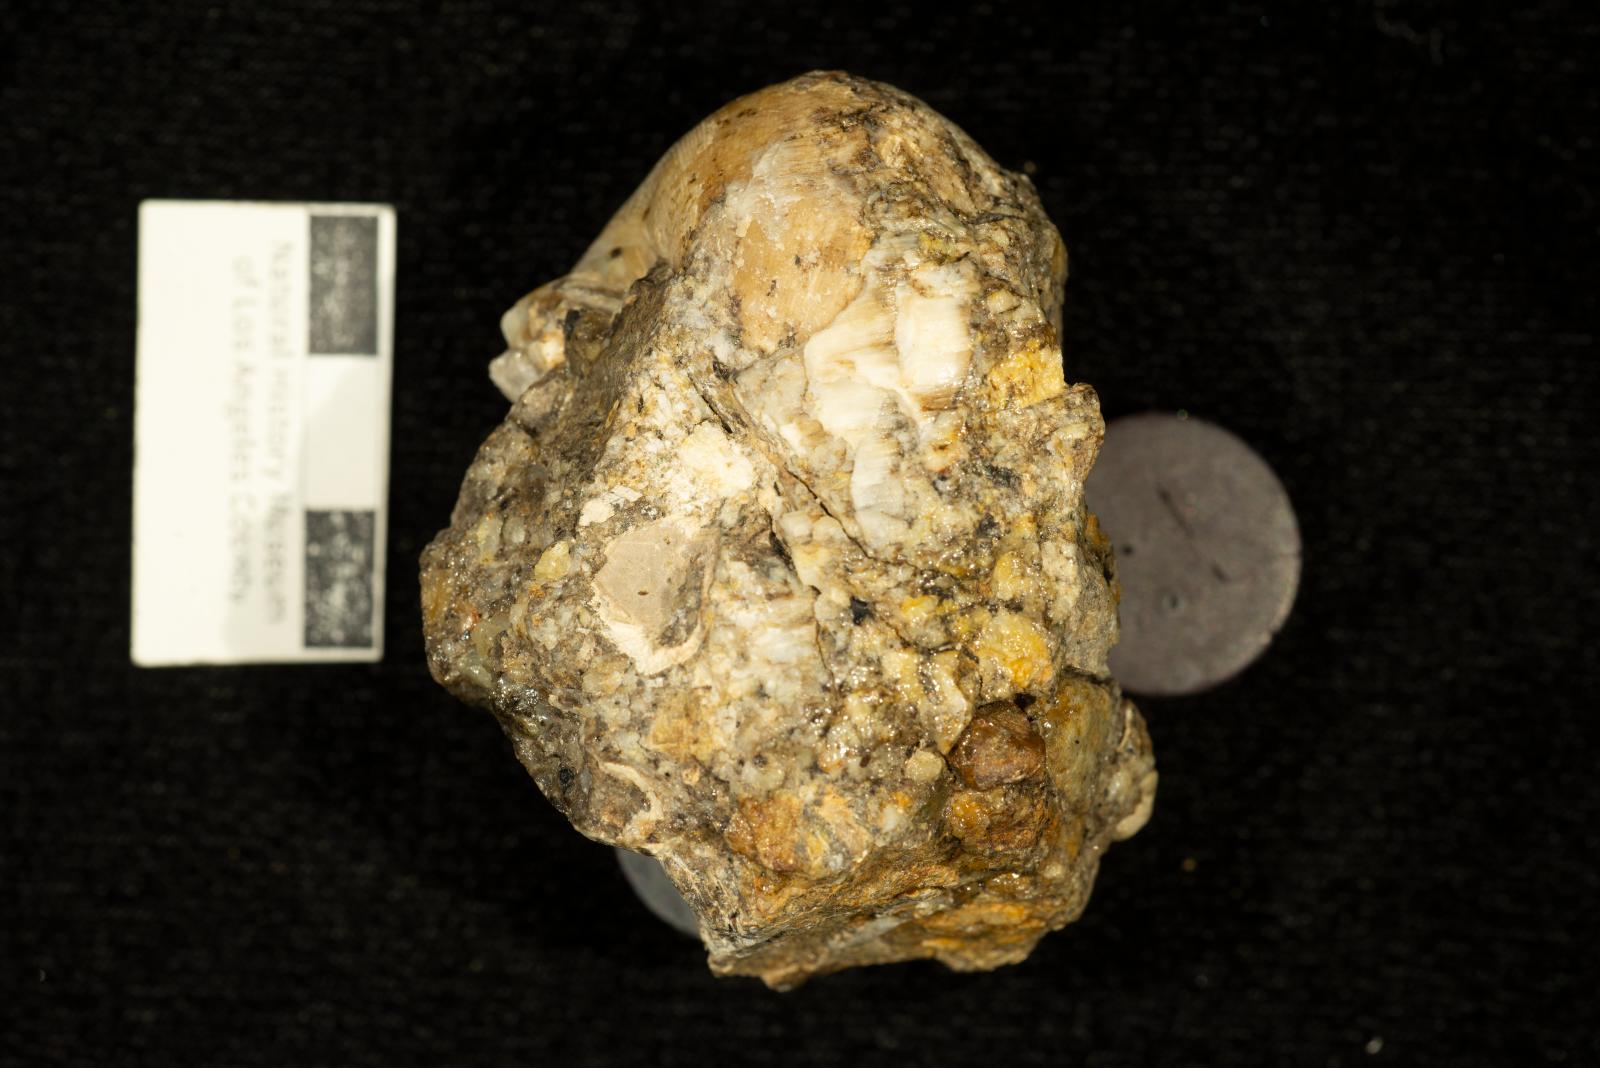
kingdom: Animalia
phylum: Mollusca
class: Bivalvia
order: Hippuritida
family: Plagioptychidae
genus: Coralliochama
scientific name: Coralliochama
